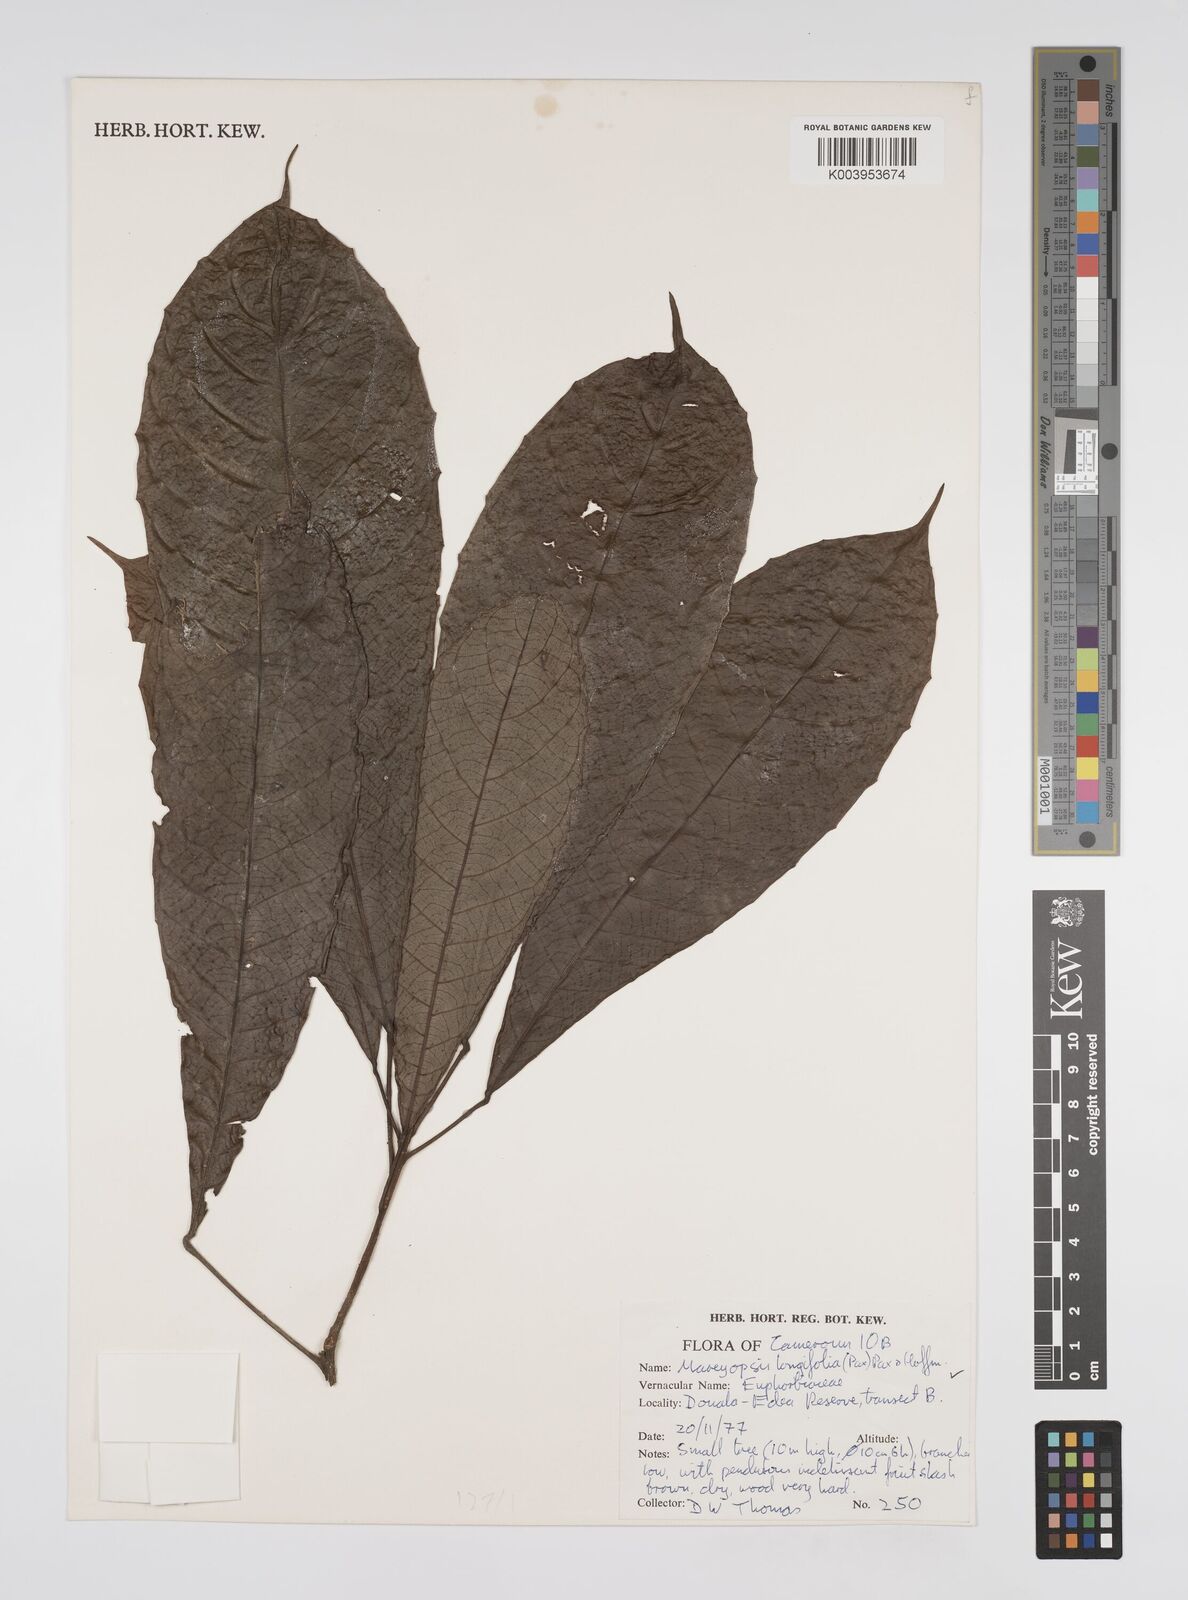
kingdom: Plantae
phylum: Tracheophyta
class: Magnoliopsida
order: Malpighiales
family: Euphorbiaceae
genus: Mareyopsis
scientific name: Mareyopsis longifolia
